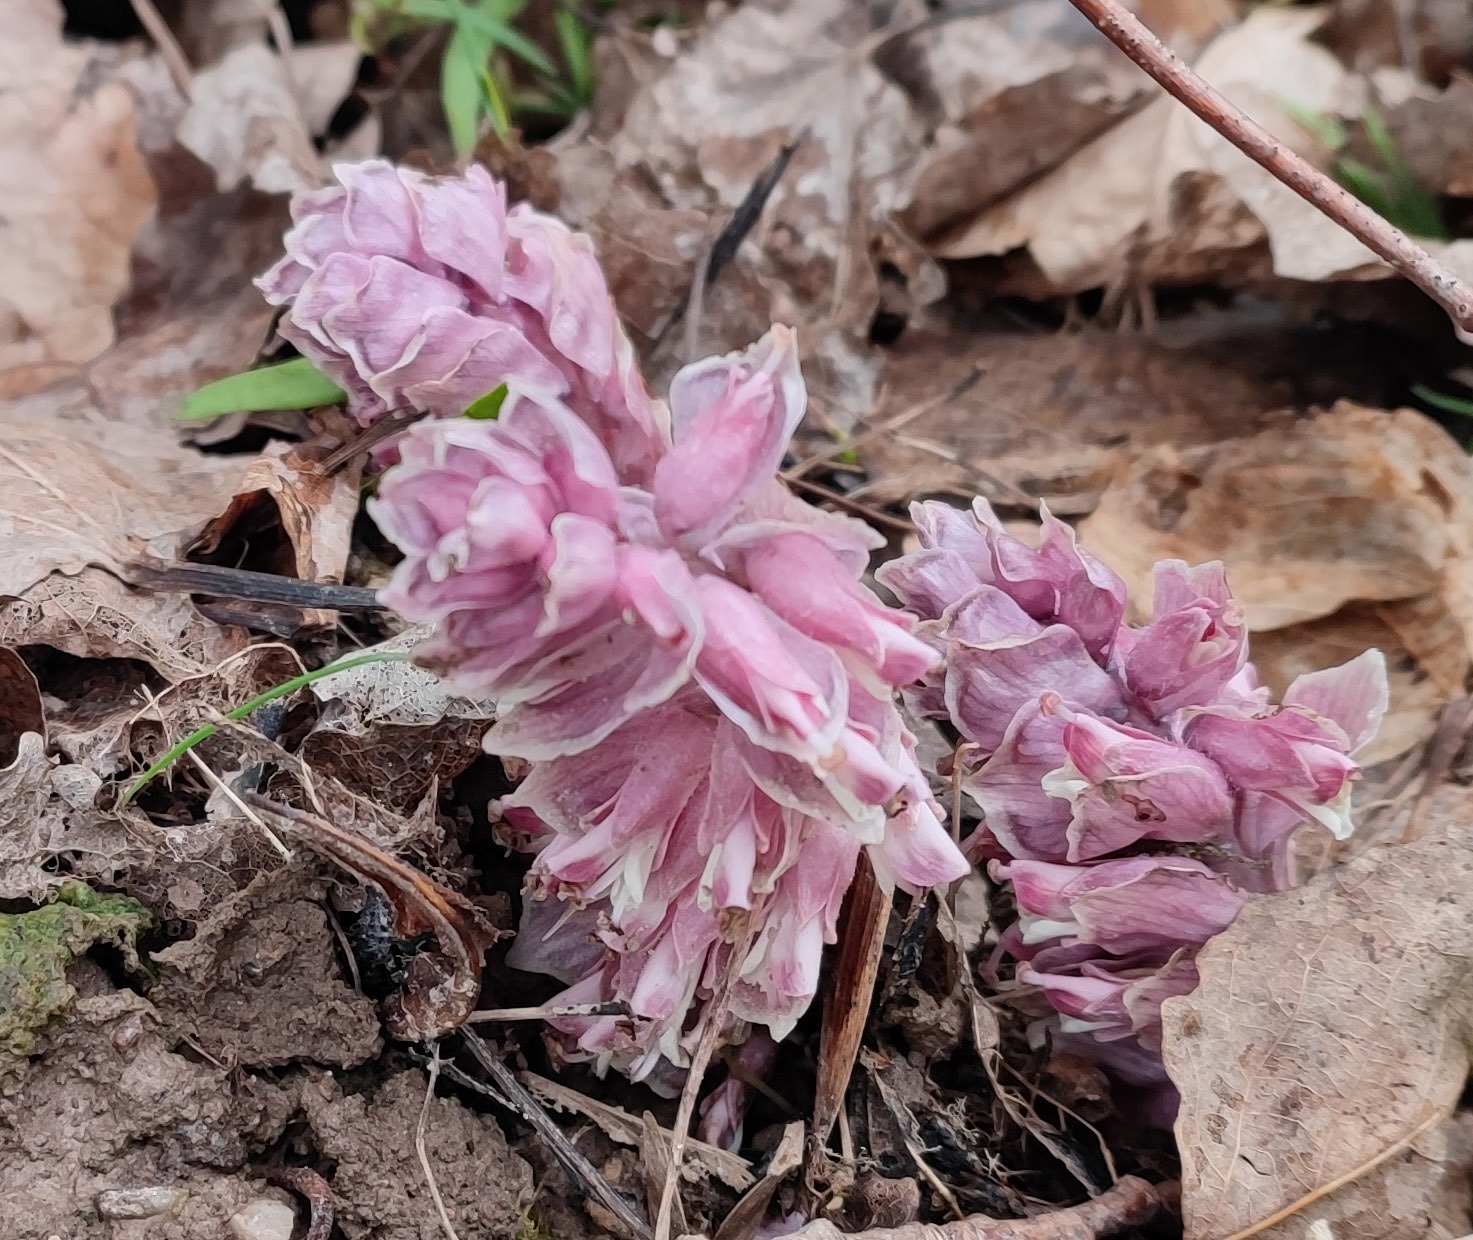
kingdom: Plantae
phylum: Tracheophyta
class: Magnoliopsida
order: Lamiales
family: Orobanchaceae
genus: Lathraea
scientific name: Lathraea squamaria
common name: Skælrod
